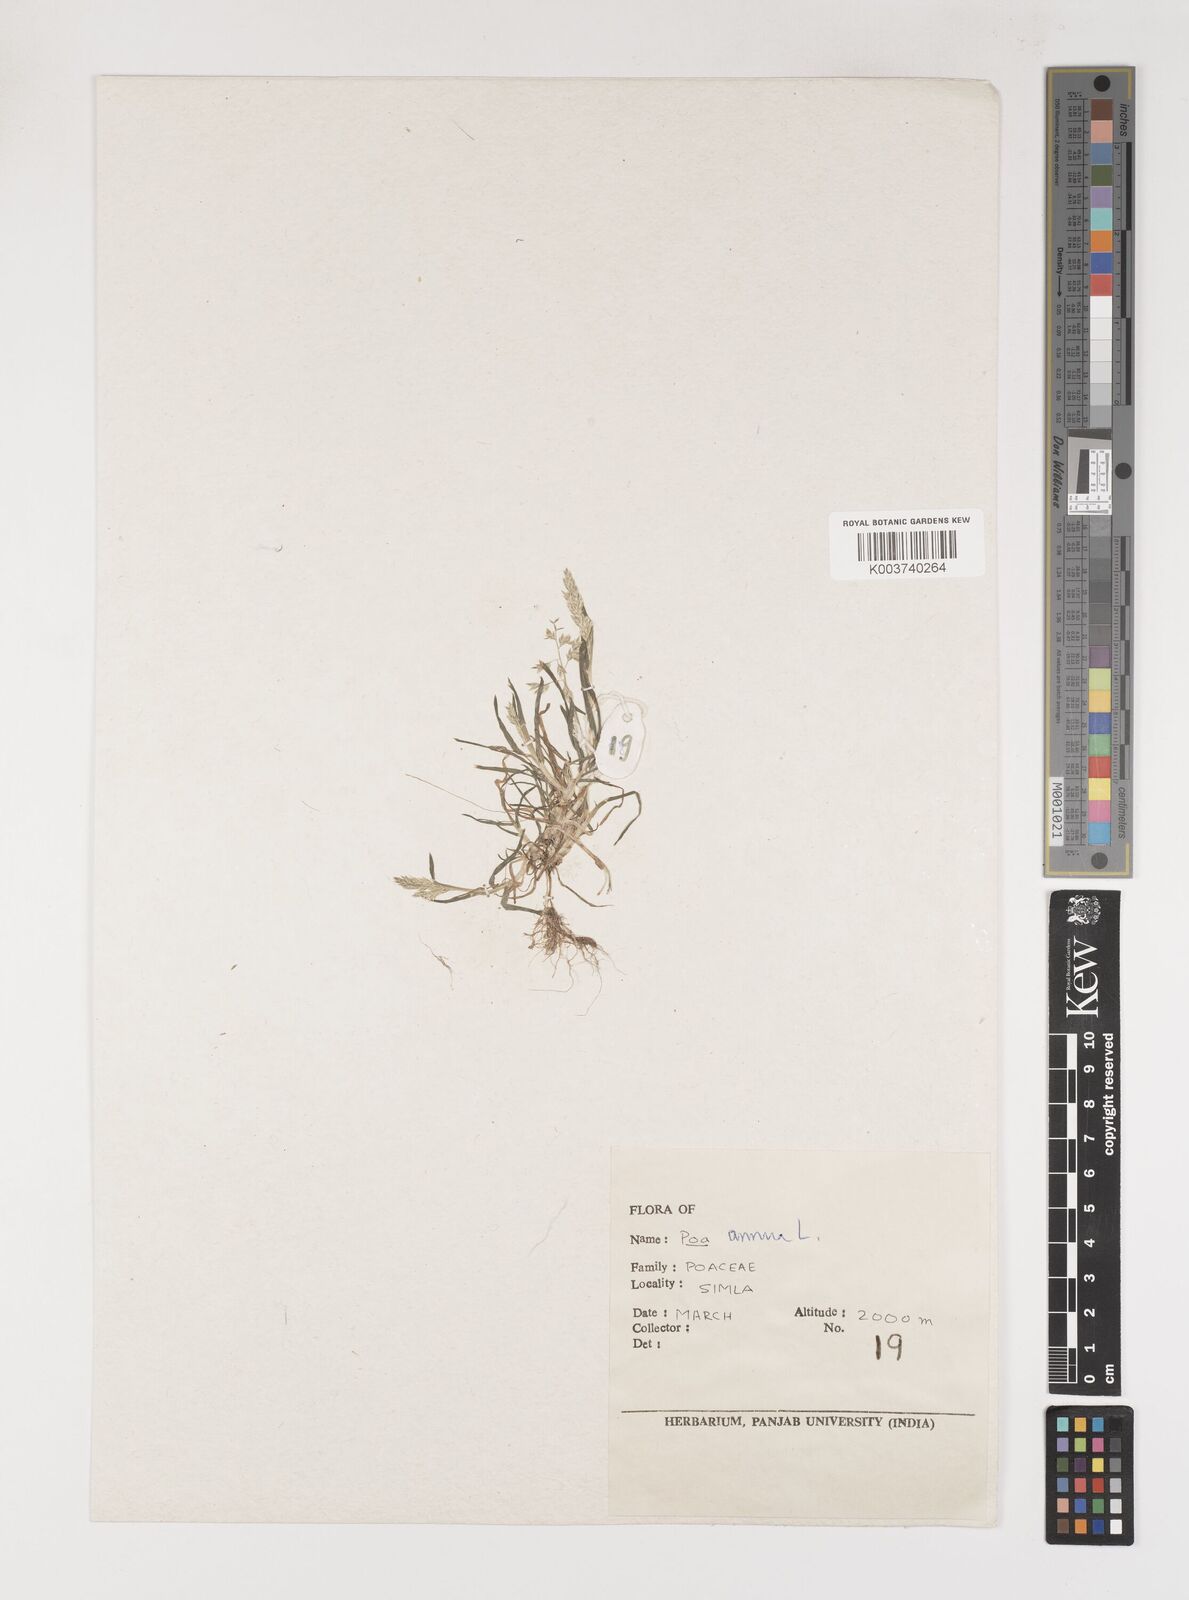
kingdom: Plantae
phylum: Tracheophyta
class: Liliopsida
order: Poales
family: Poaceae
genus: Poa
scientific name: Poa annua
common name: Annual bluegrass
